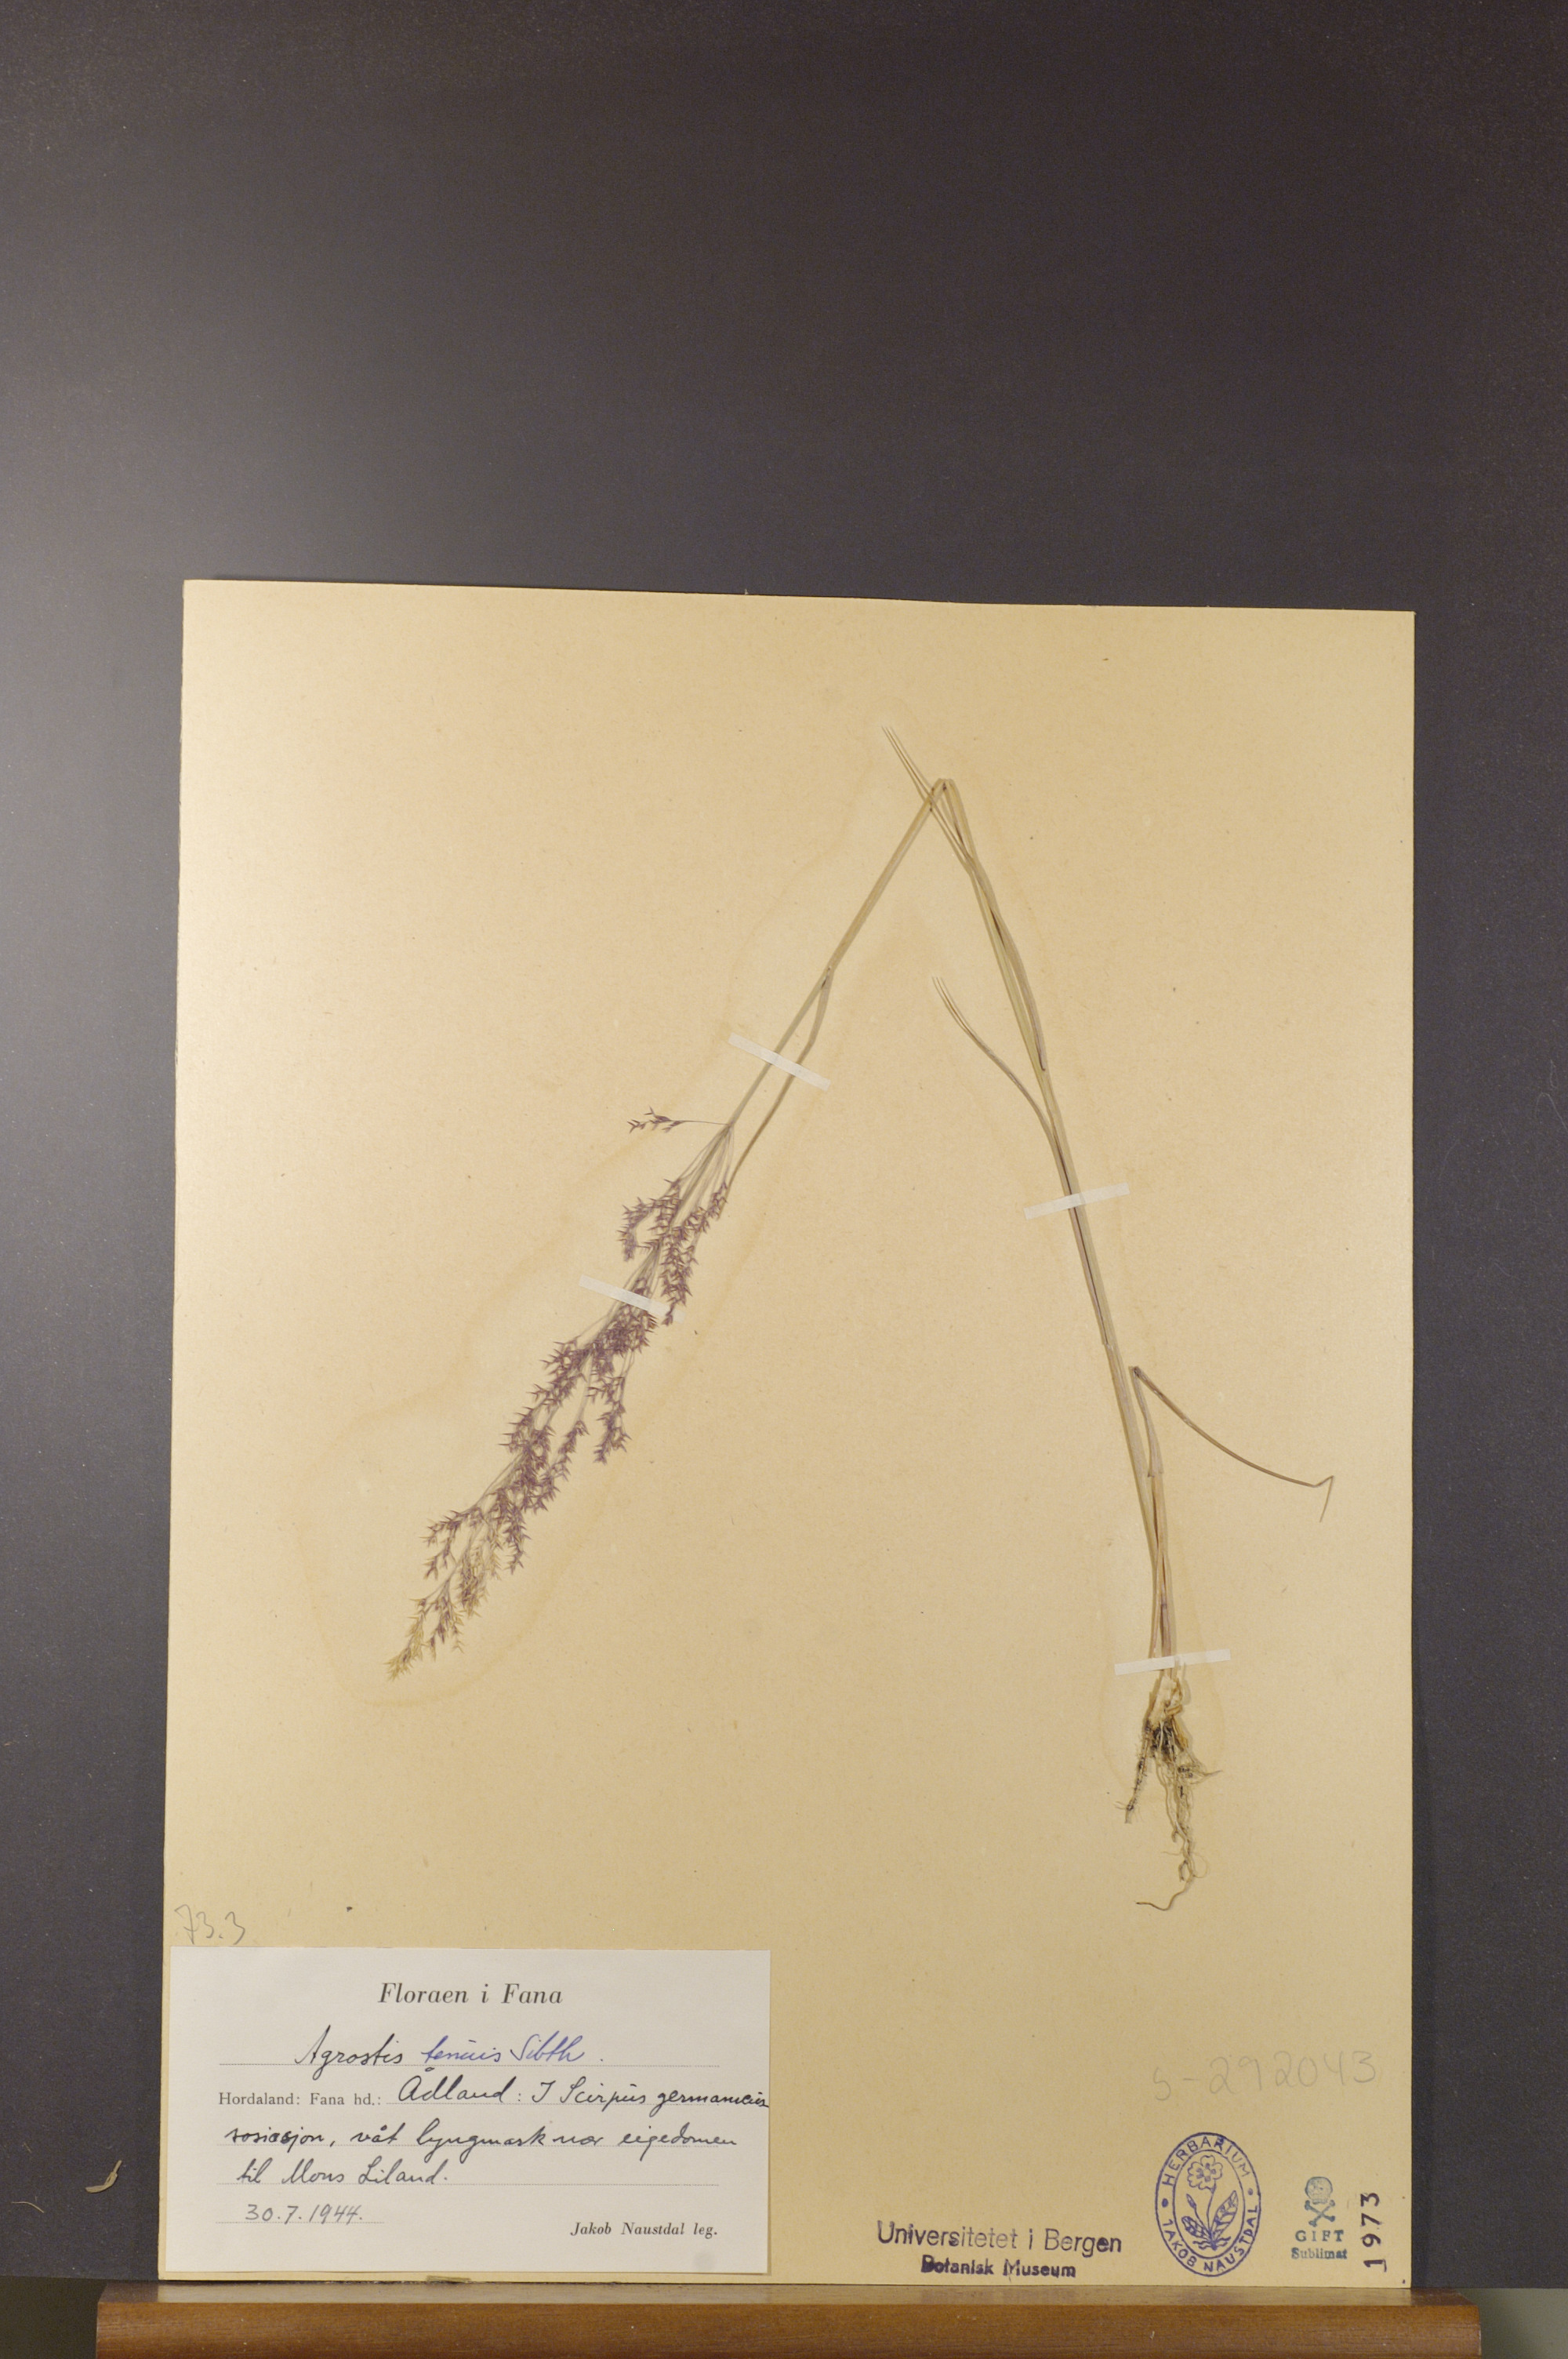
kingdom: Plantae
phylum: Tracheophyta
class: Liliopsida
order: Poales
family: Poaceae
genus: Agrostis
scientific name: Agrostis capillaris
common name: Colonial bentgrass
